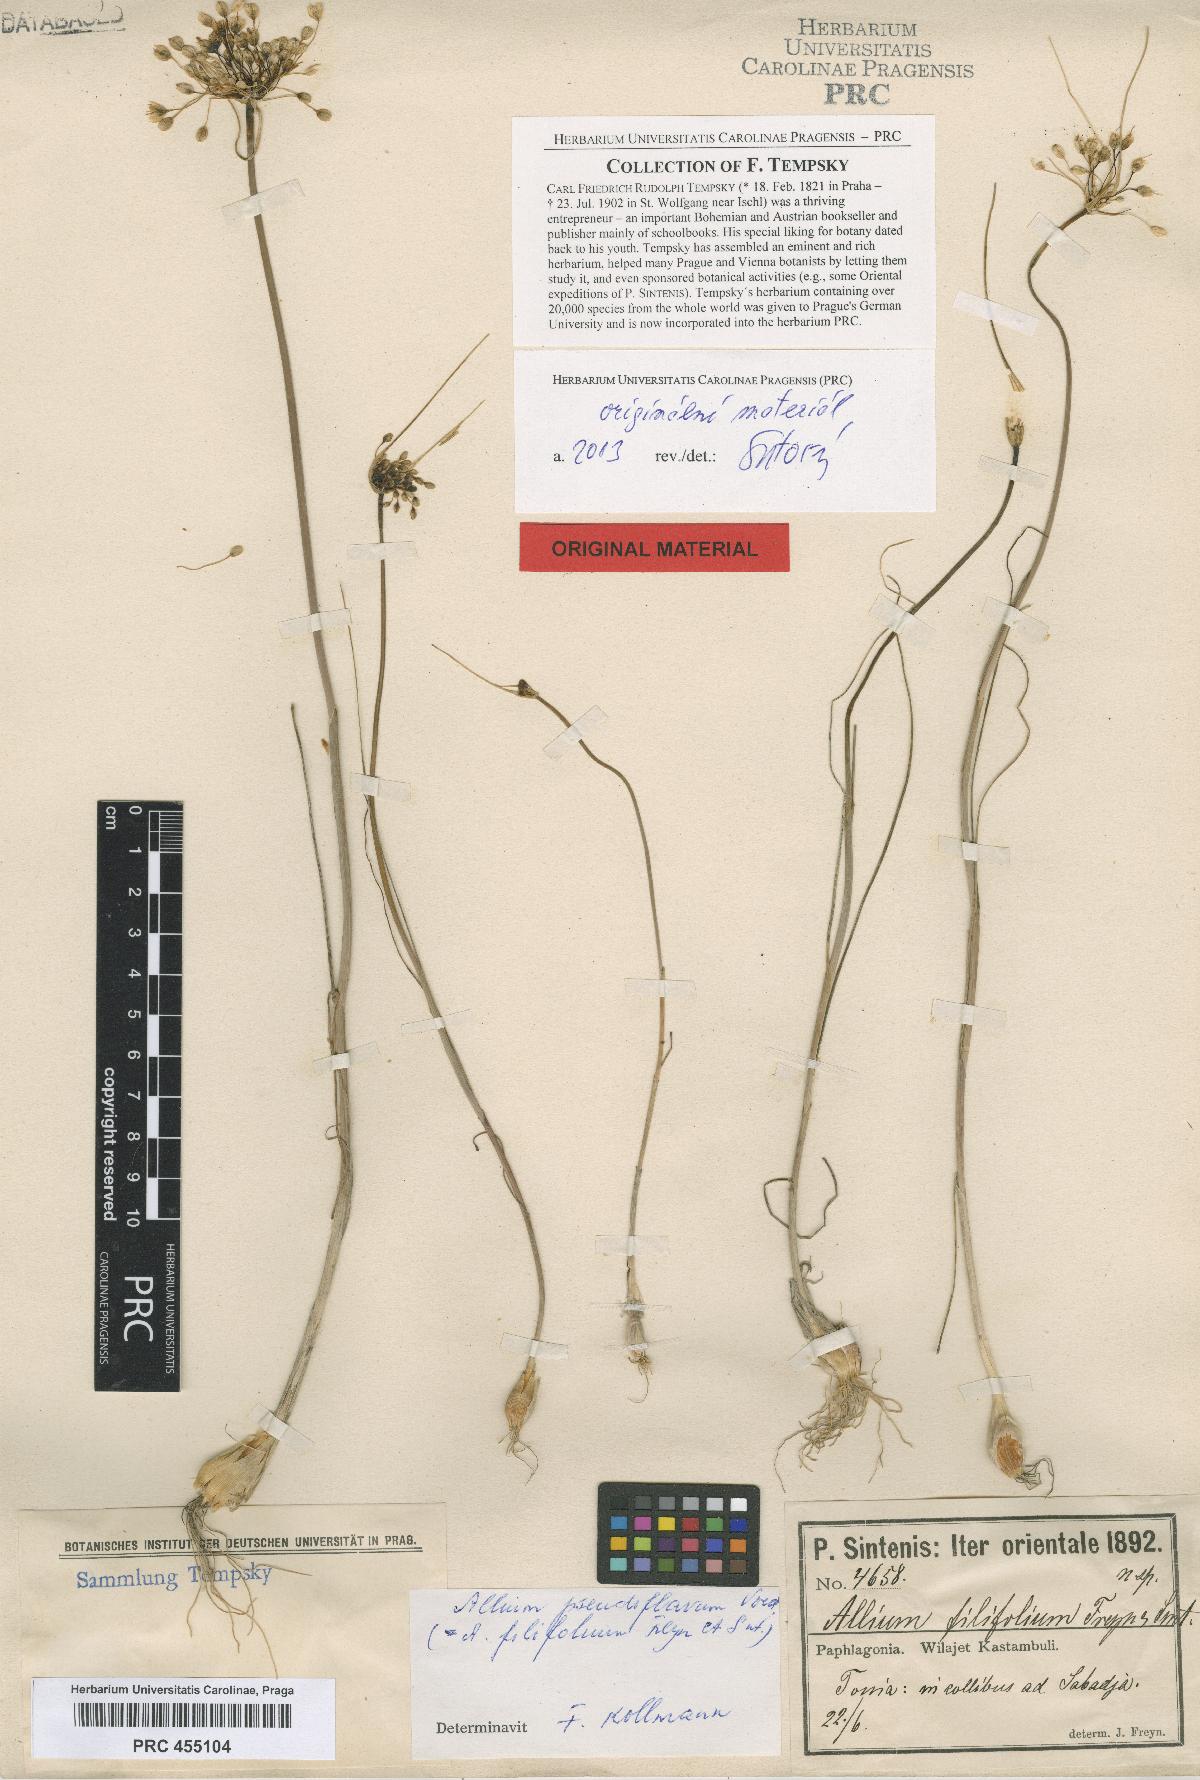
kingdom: Plantae
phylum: Tracheophyta
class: Liliopsida
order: Asparagales
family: Amaryllidaceae
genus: Allium
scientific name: Allium pseudoflavum
